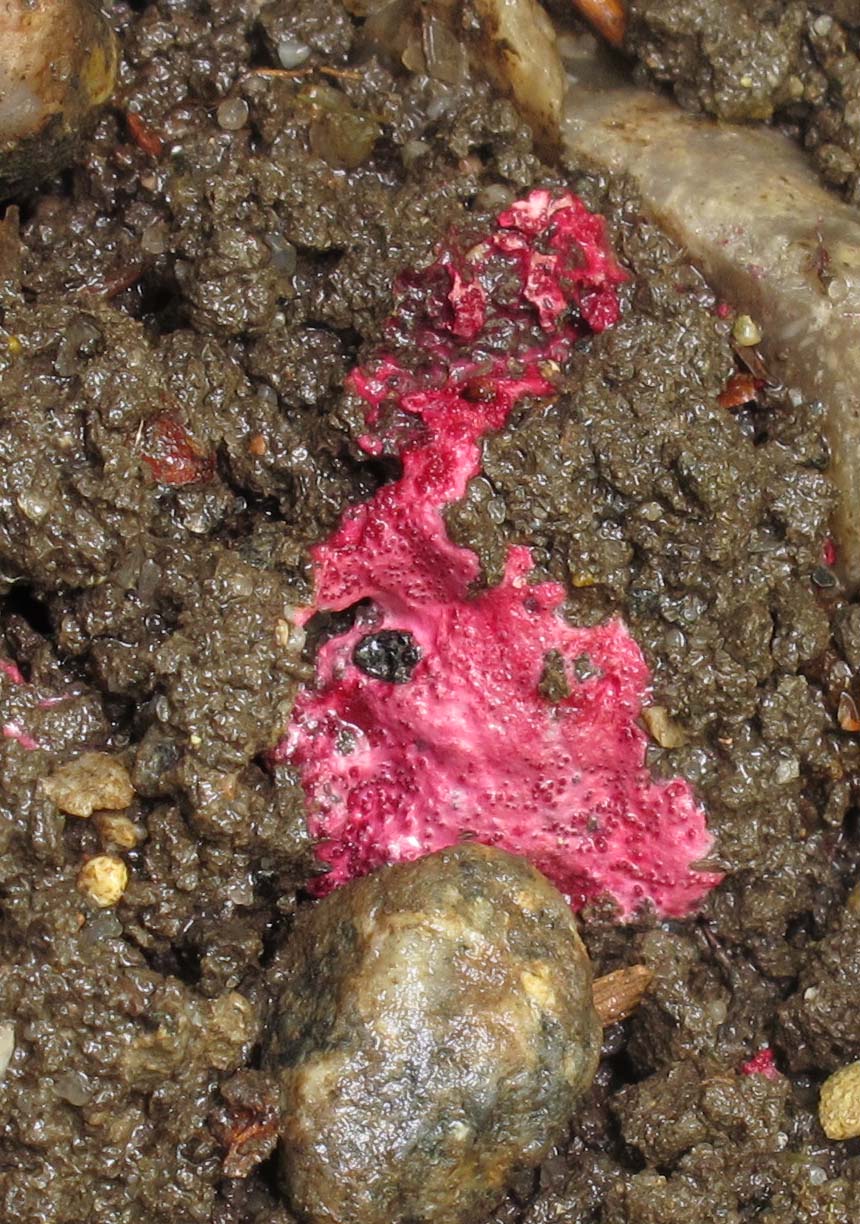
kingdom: Fungi
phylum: Ascomycota
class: Sordariomycetes
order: Hypocreales
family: Hypocreaceae
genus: Hypomyces
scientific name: Hypomyces rosellus
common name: rosa snylteskorpe
